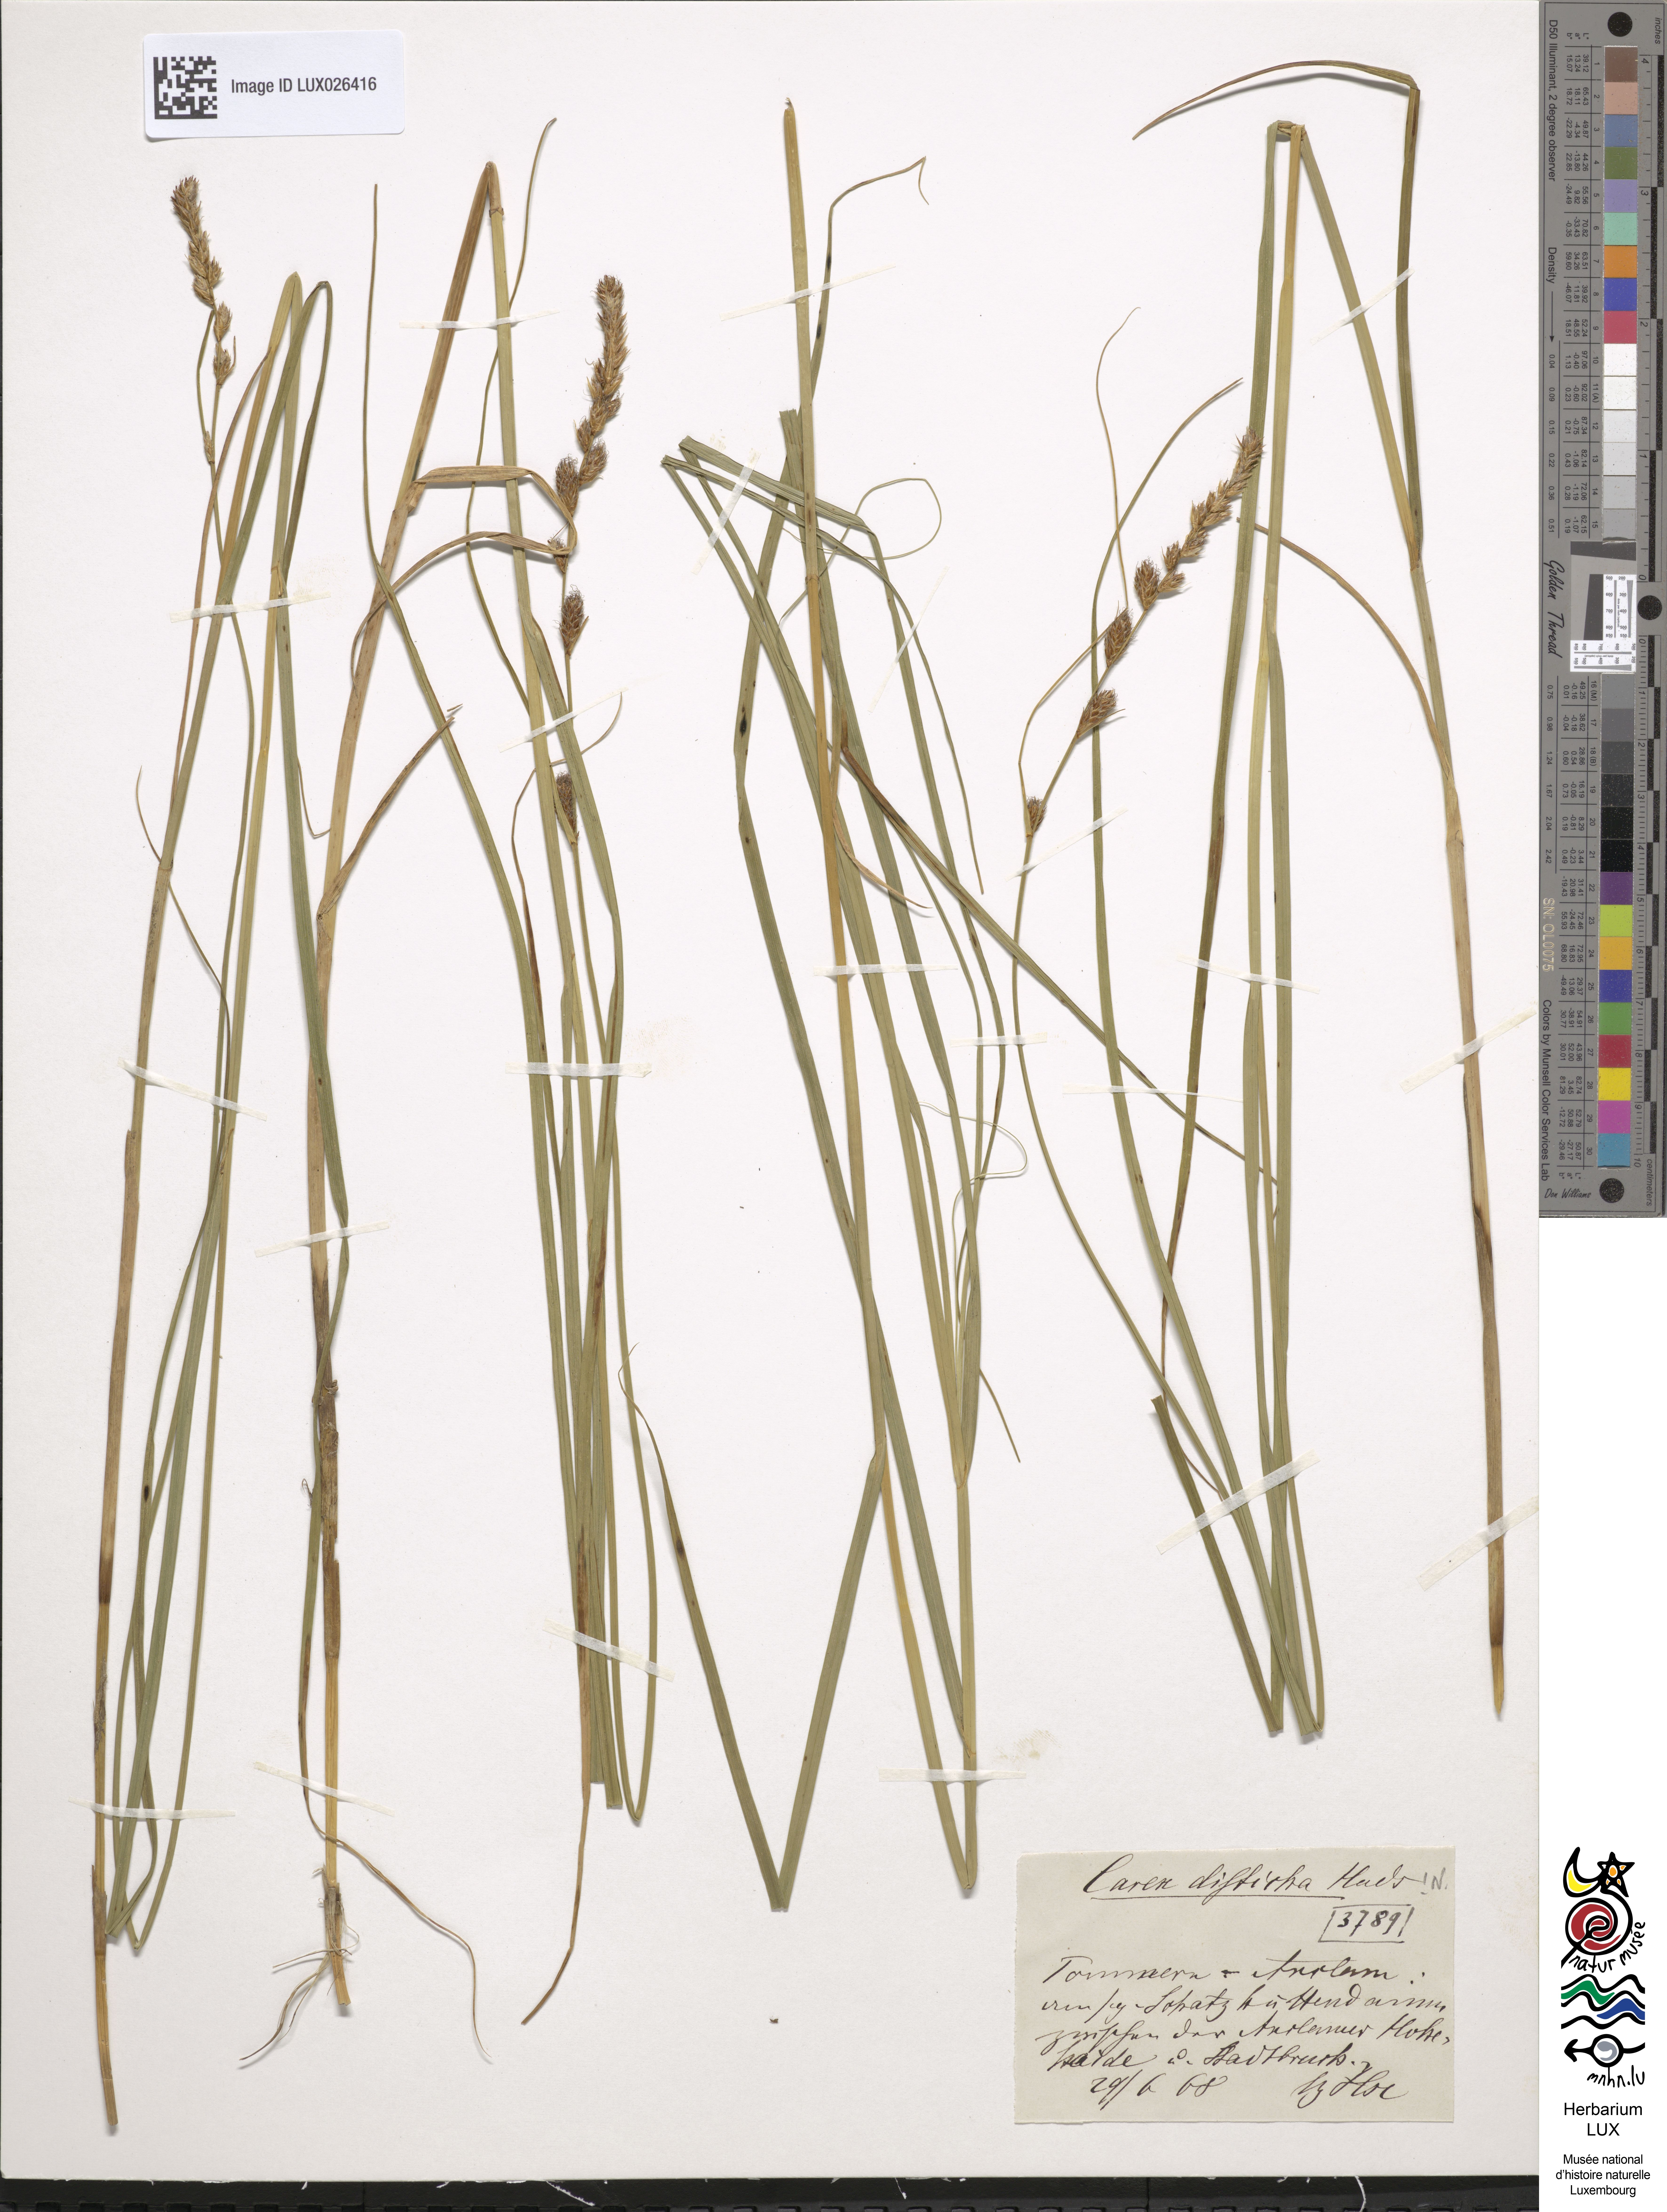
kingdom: Plantae
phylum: Tracheophyta
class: Liliopsida
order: Poales
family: Cyperaceae
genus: Carex
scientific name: Carex disticha
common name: Brown sedge
